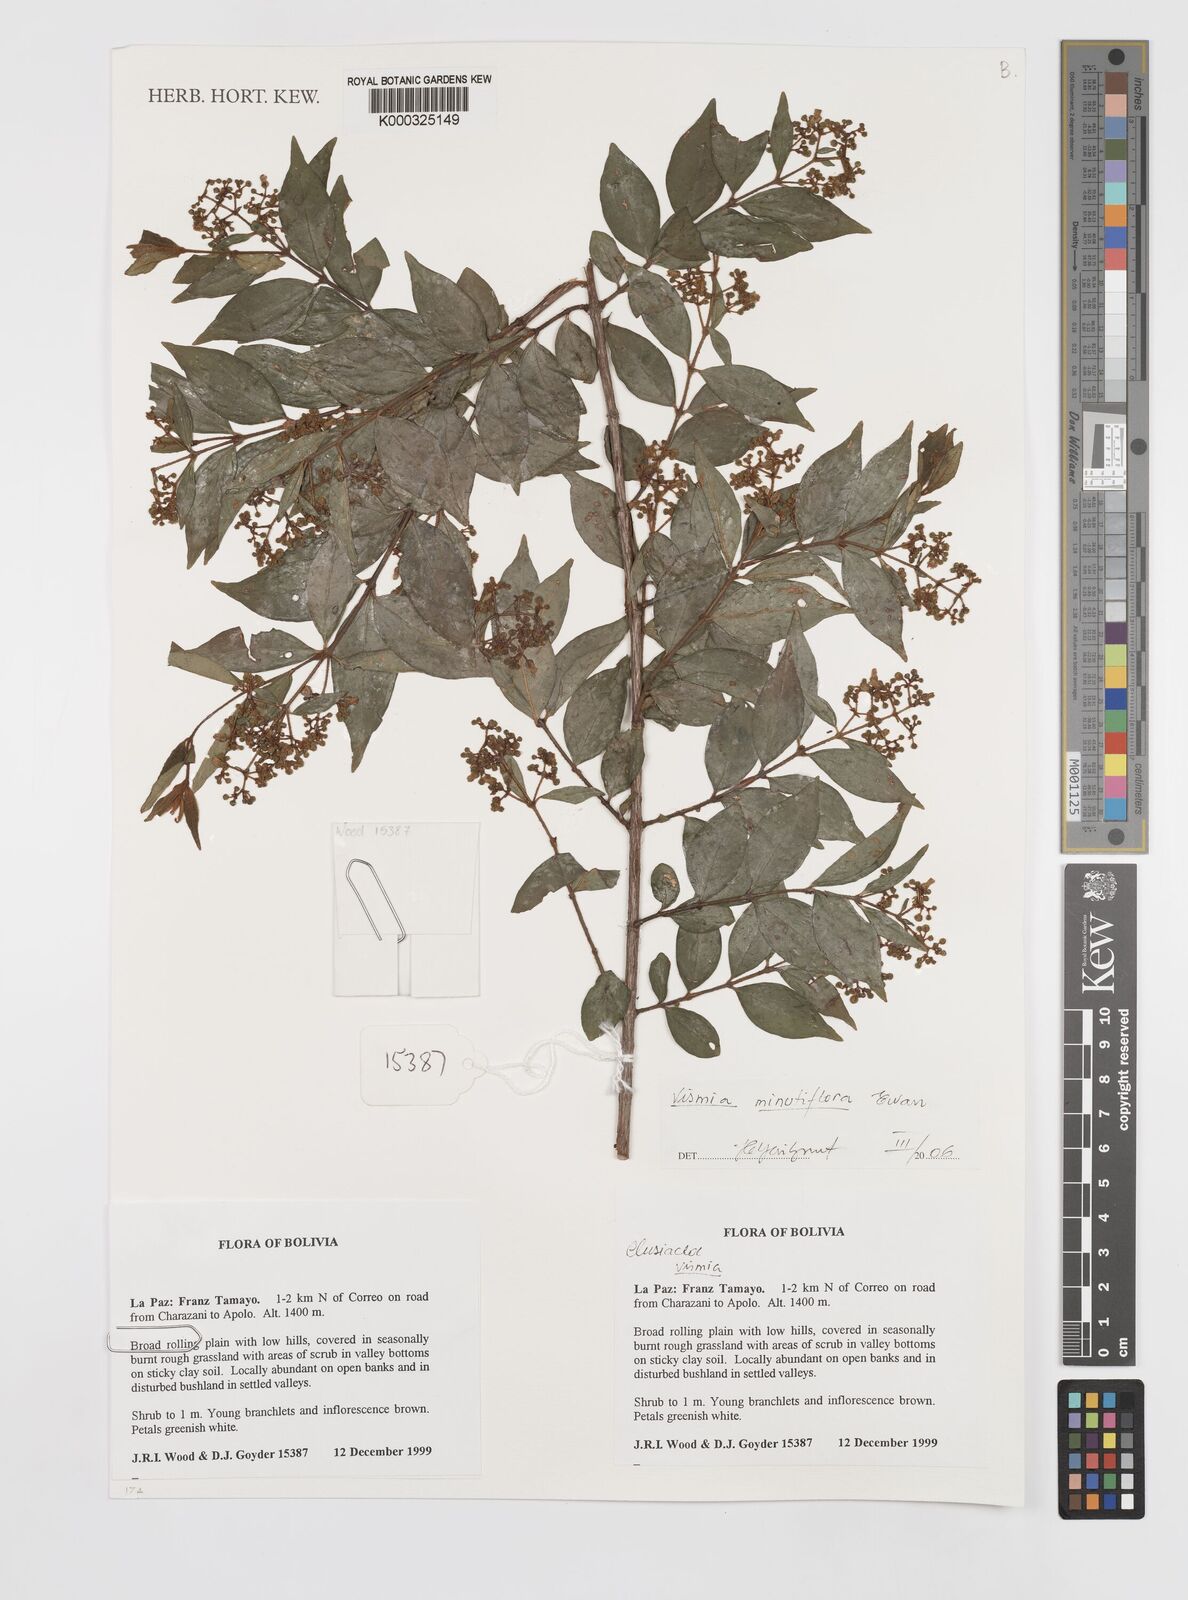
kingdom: Plantae
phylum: Tracheophyta
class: Magnoliopsida
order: Malpighiales
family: Hypericaceae
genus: Vismia
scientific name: Vismia minutiflora
